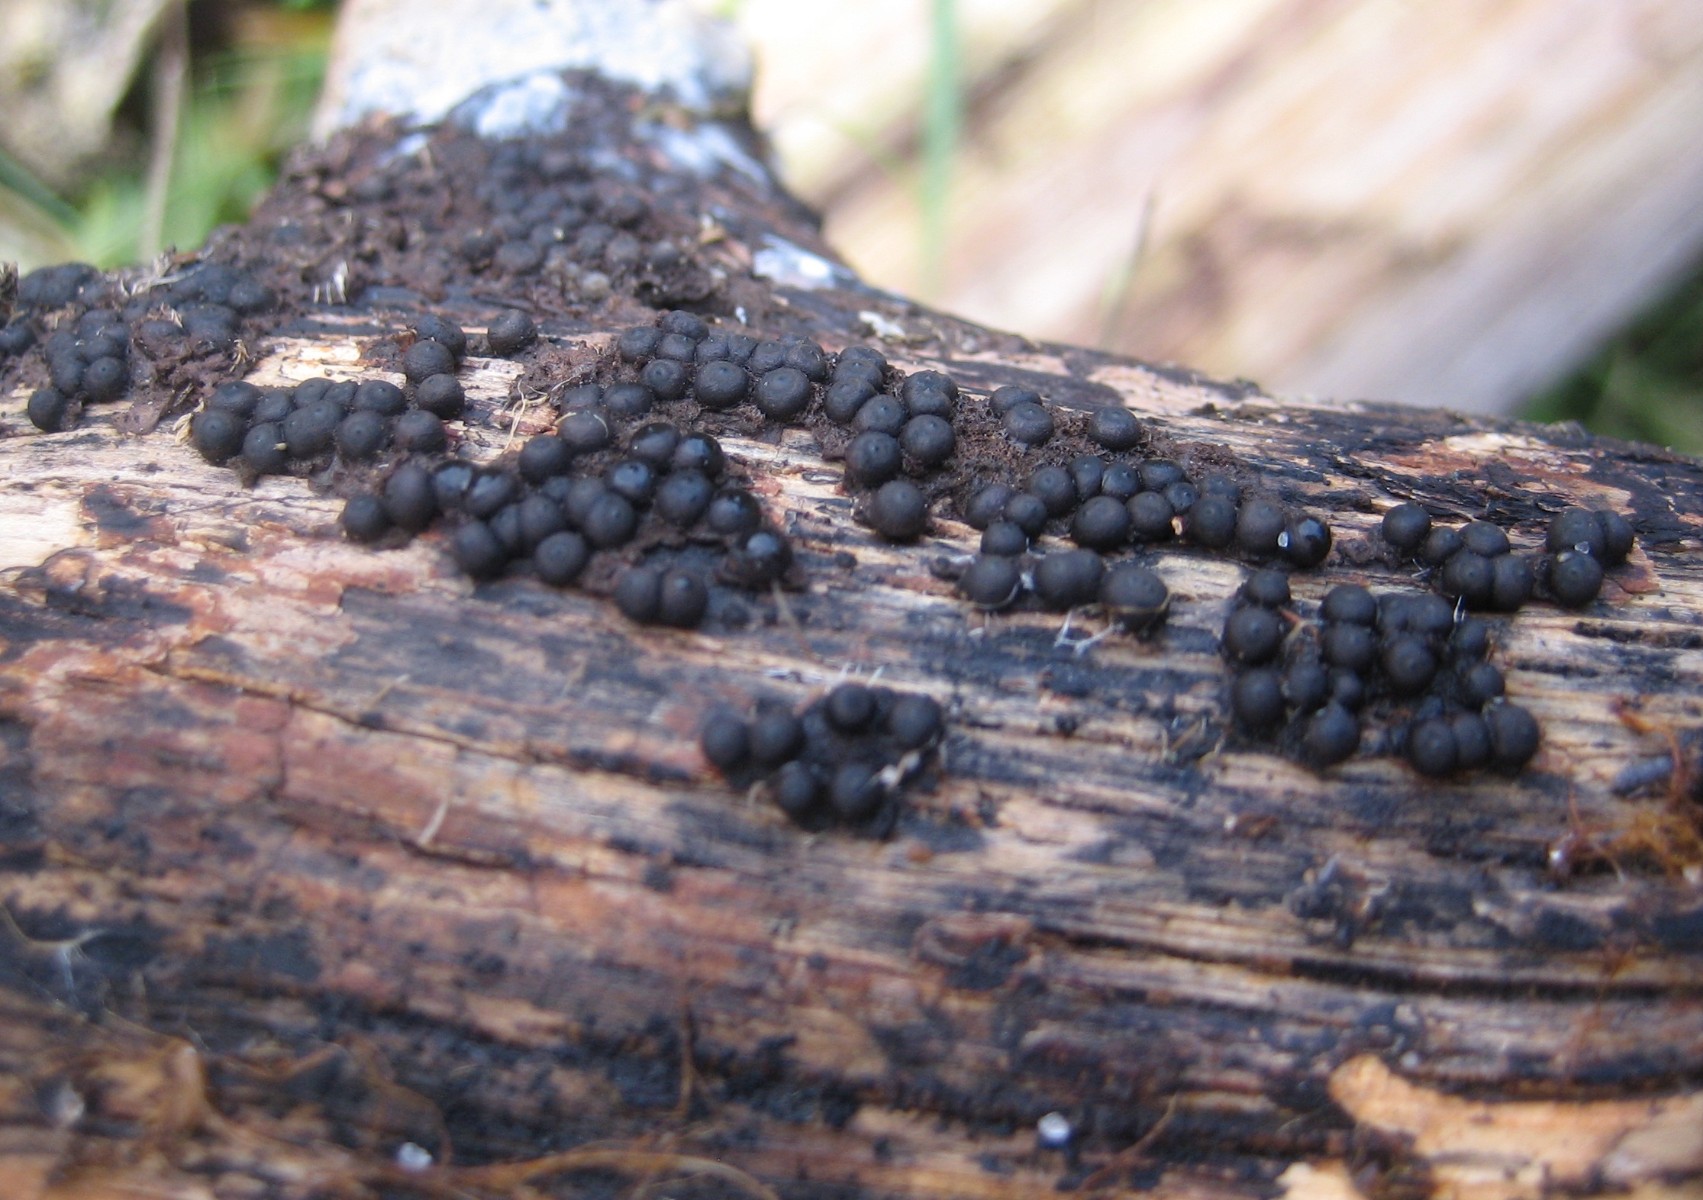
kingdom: Fungi
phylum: Ascomycota
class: Sordariomycetes
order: Xylariales
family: Xylariaceae
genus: Rosellinia
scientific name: Rosellinia
